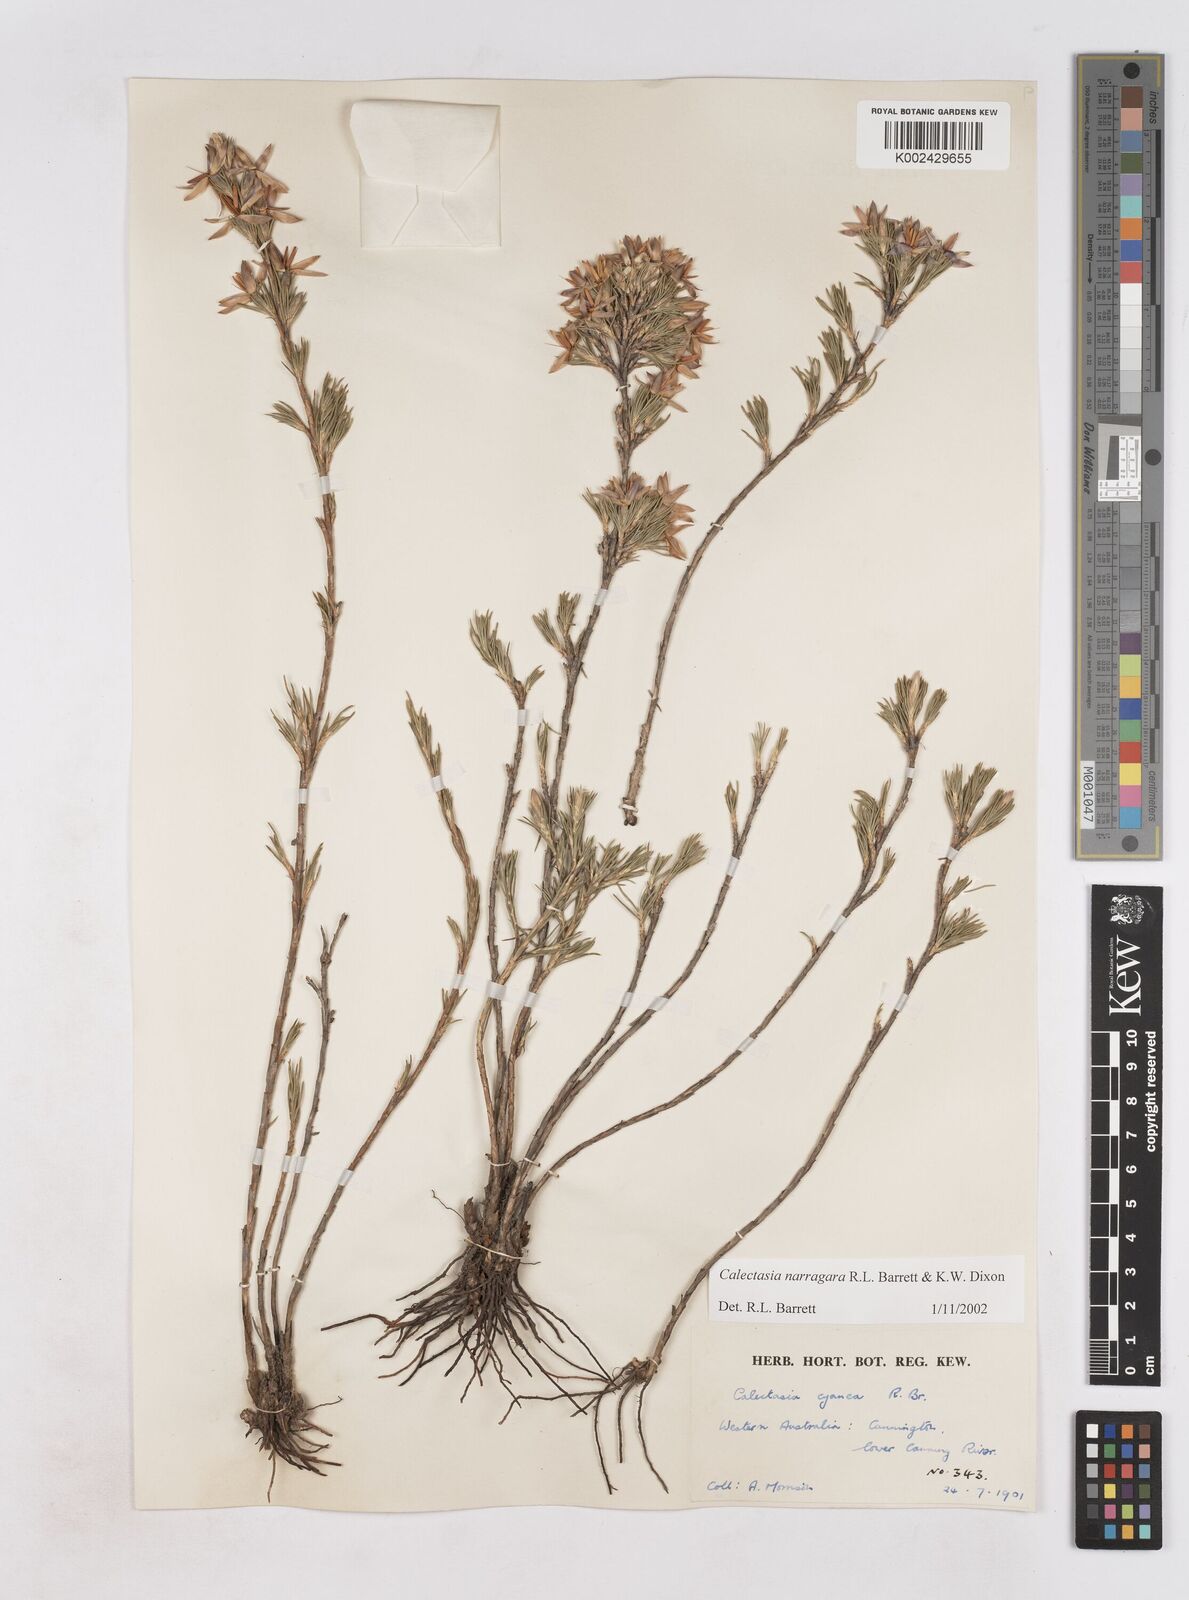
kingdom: Plantae
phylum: Tracheophyta
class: Liliopsida
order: Arecales
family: Dasypogonaceae
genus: Calectasia
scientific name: Calectasia narragara
